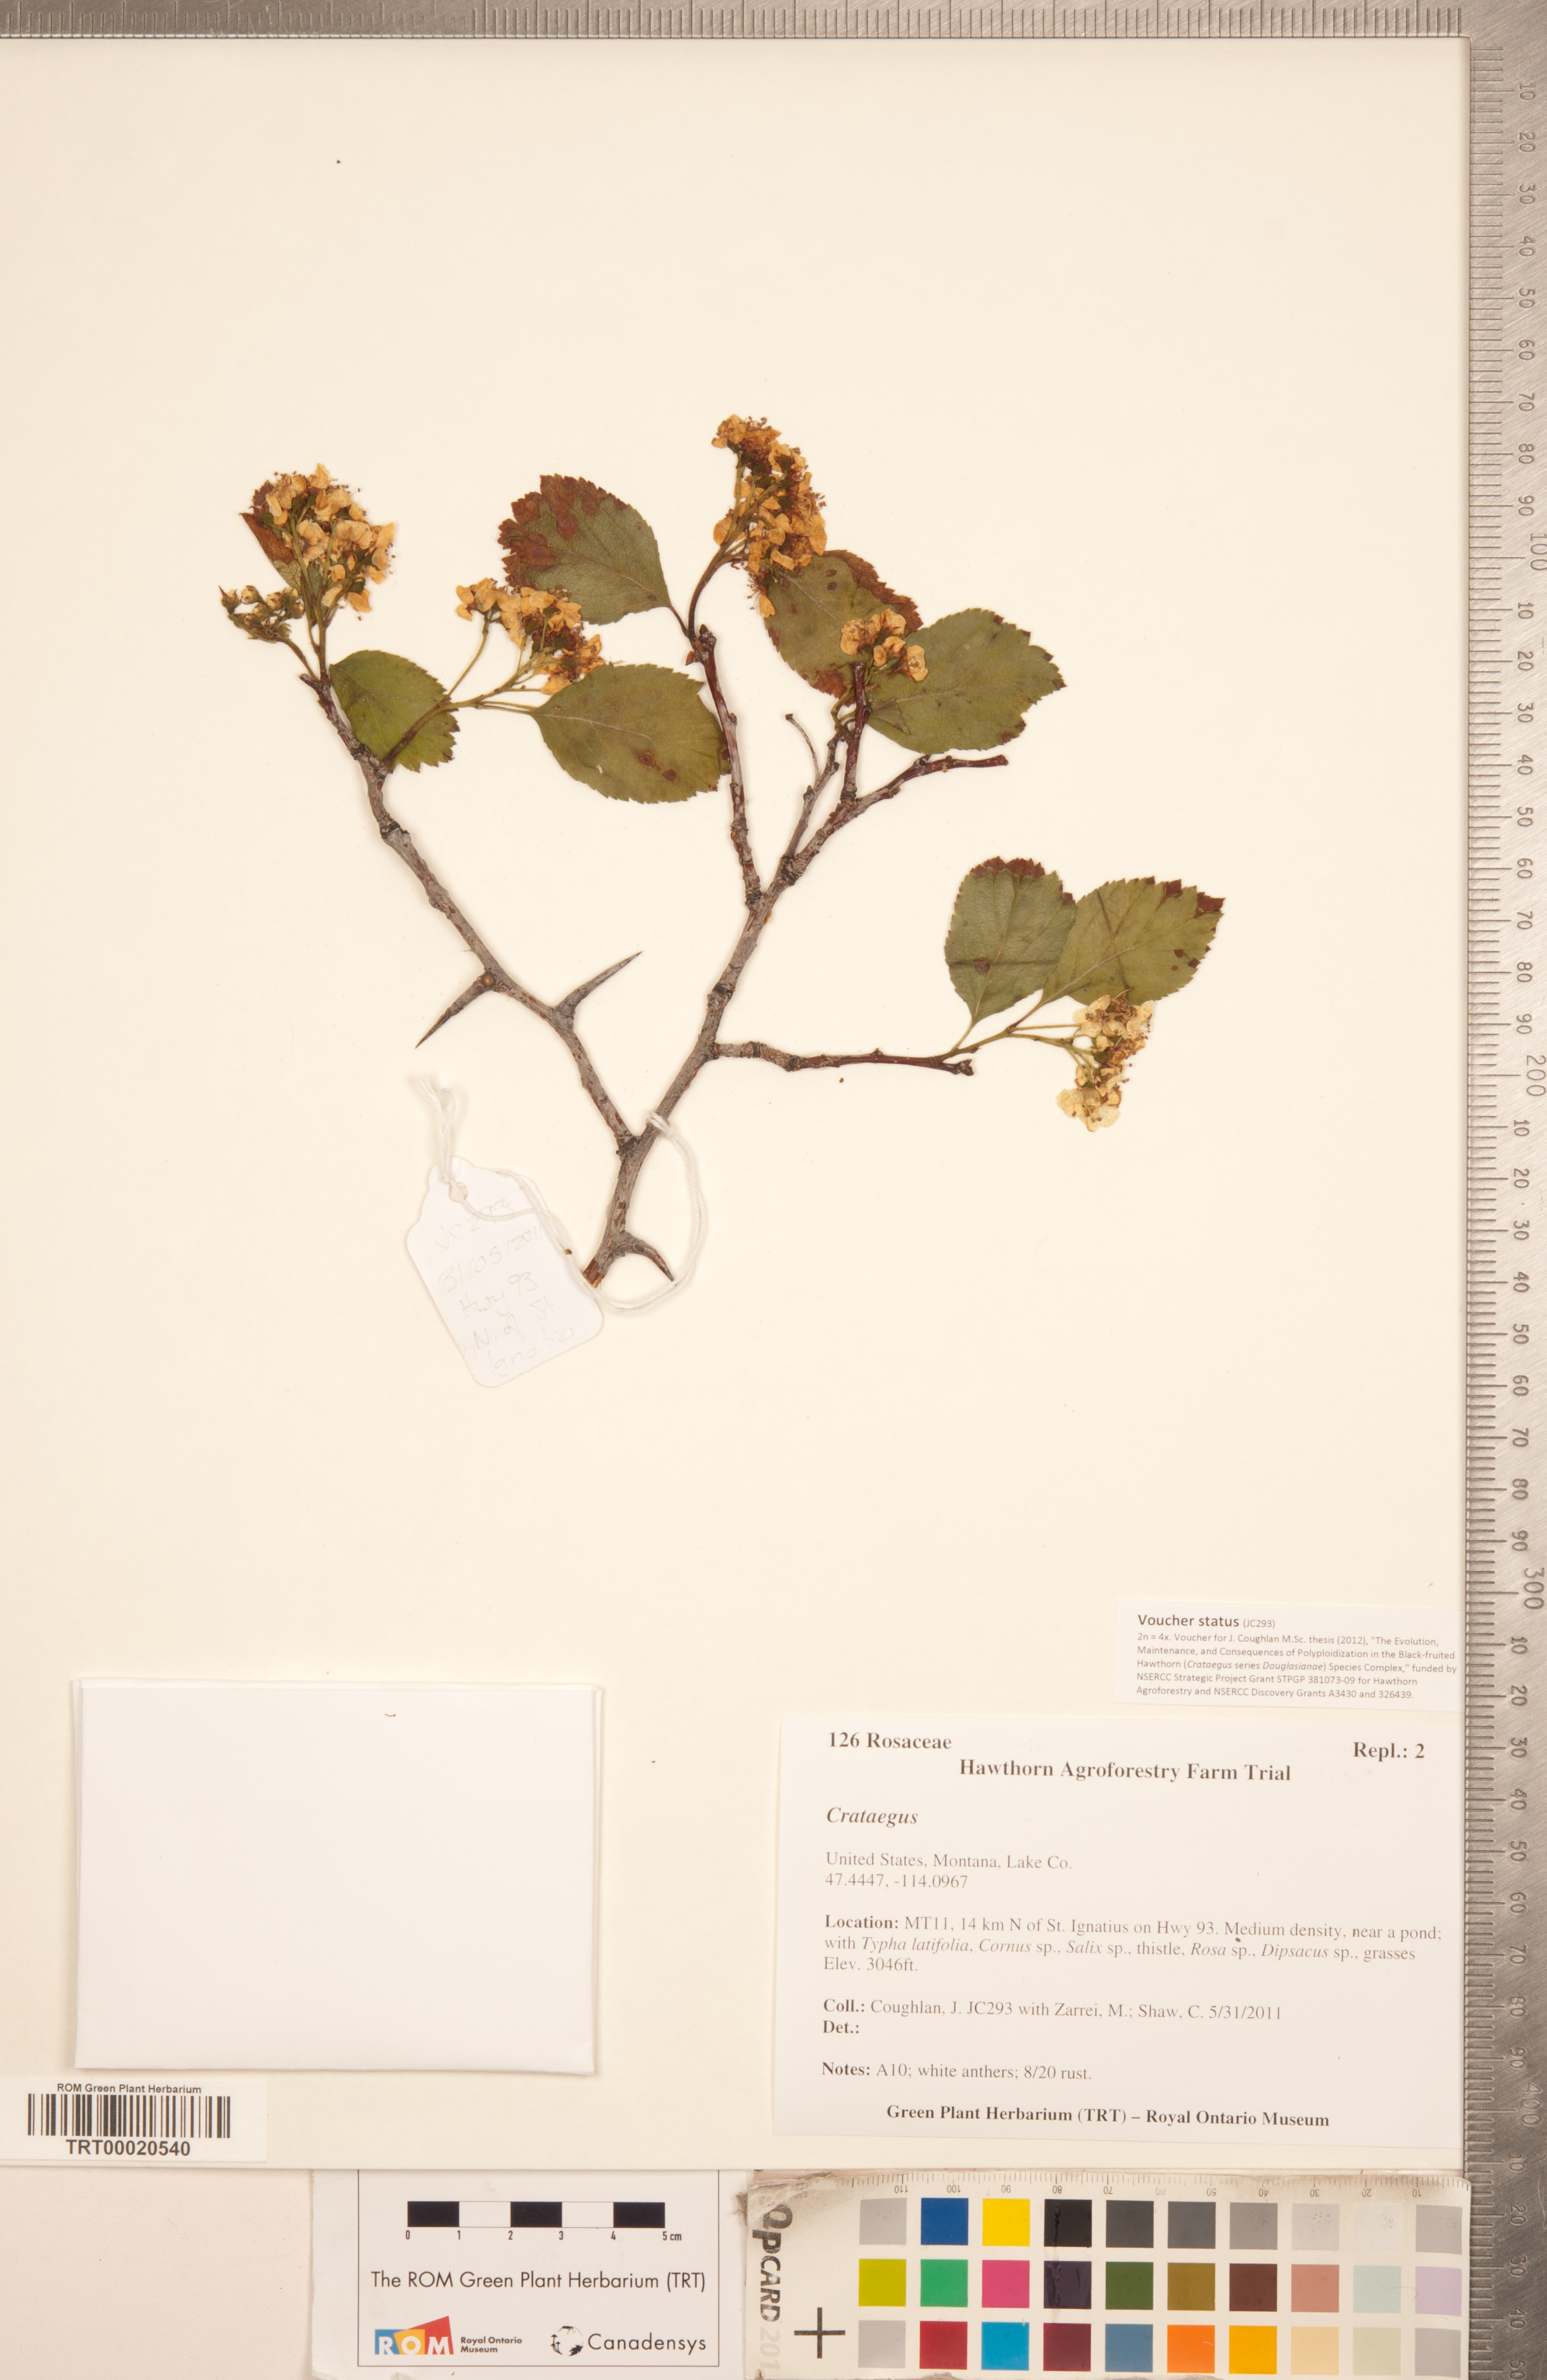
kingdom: Plantae
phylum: Tracheophyta
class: Magnoliopsida
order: Rosales
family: Rosaceae
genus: Crataegus
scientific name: Crataegus
